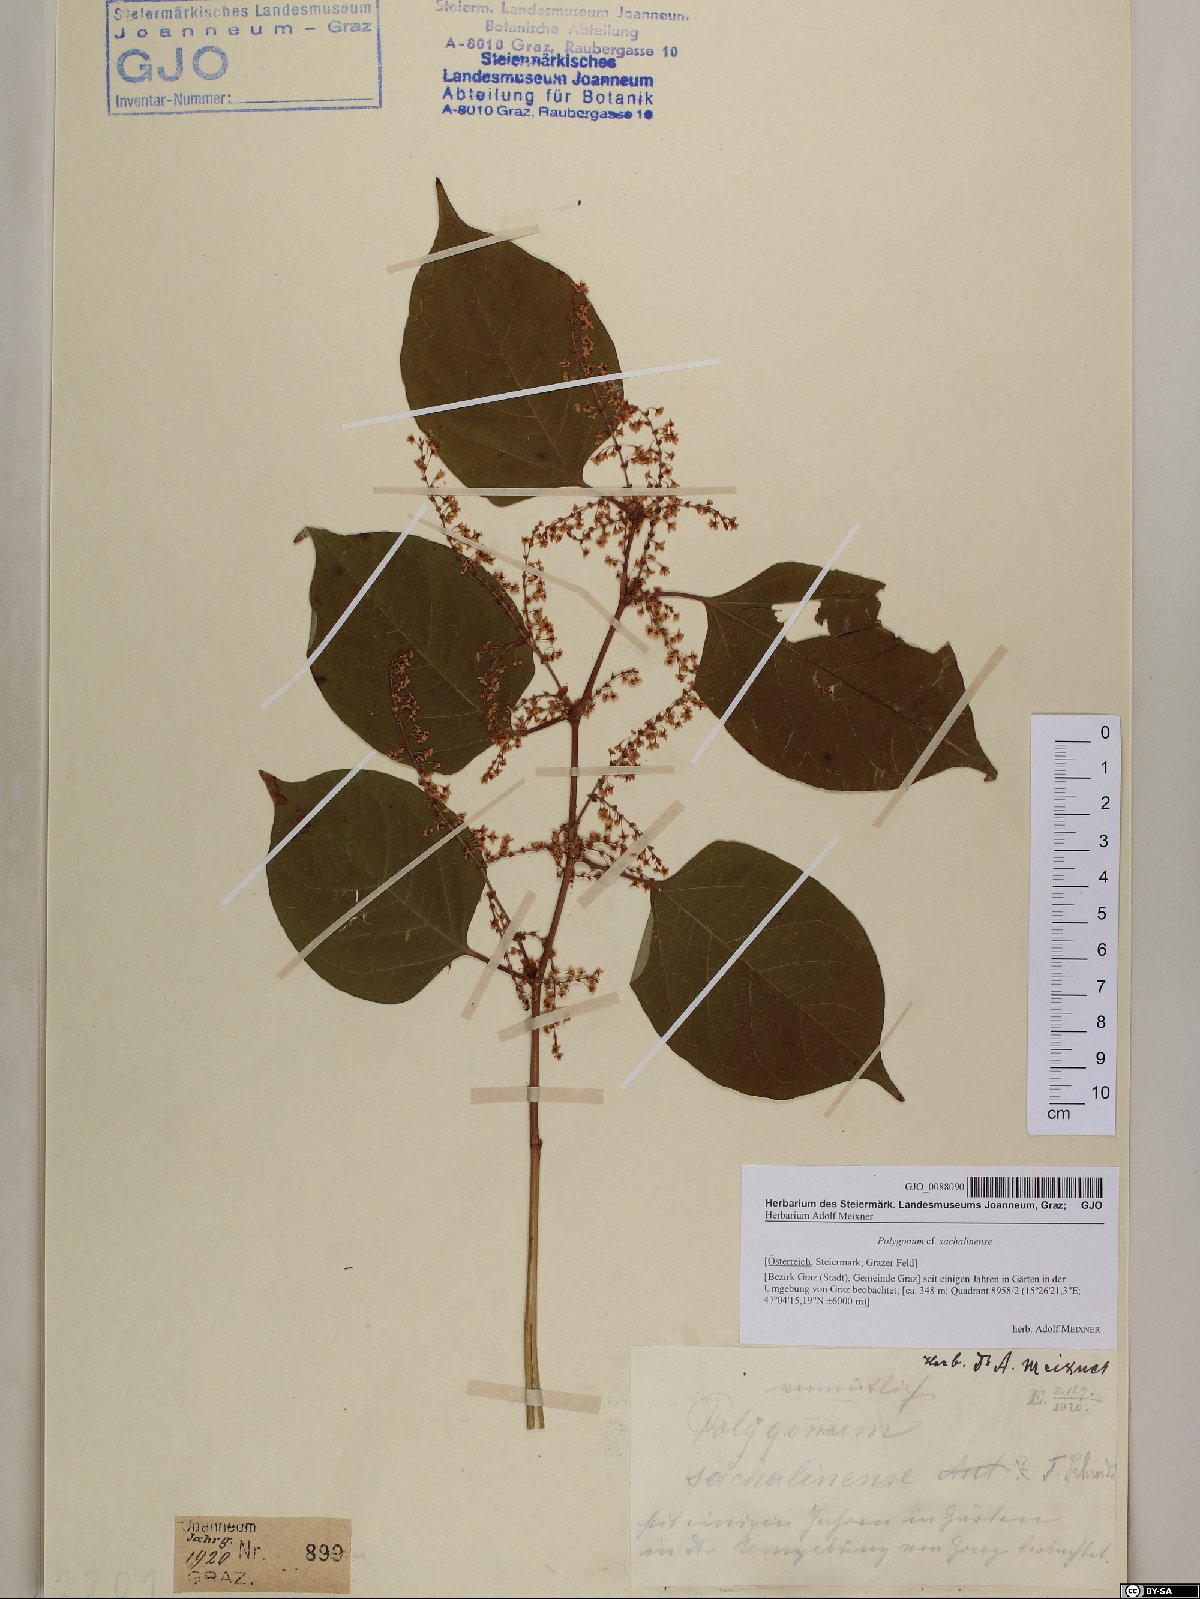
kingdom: Plantae
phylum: Tracheophyta
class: Magnoliopsida
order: Caryophyllales
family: Polygonaceae
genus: Reynoutria
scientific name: Reynoutria sachalinensis
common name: Giant knotweed
